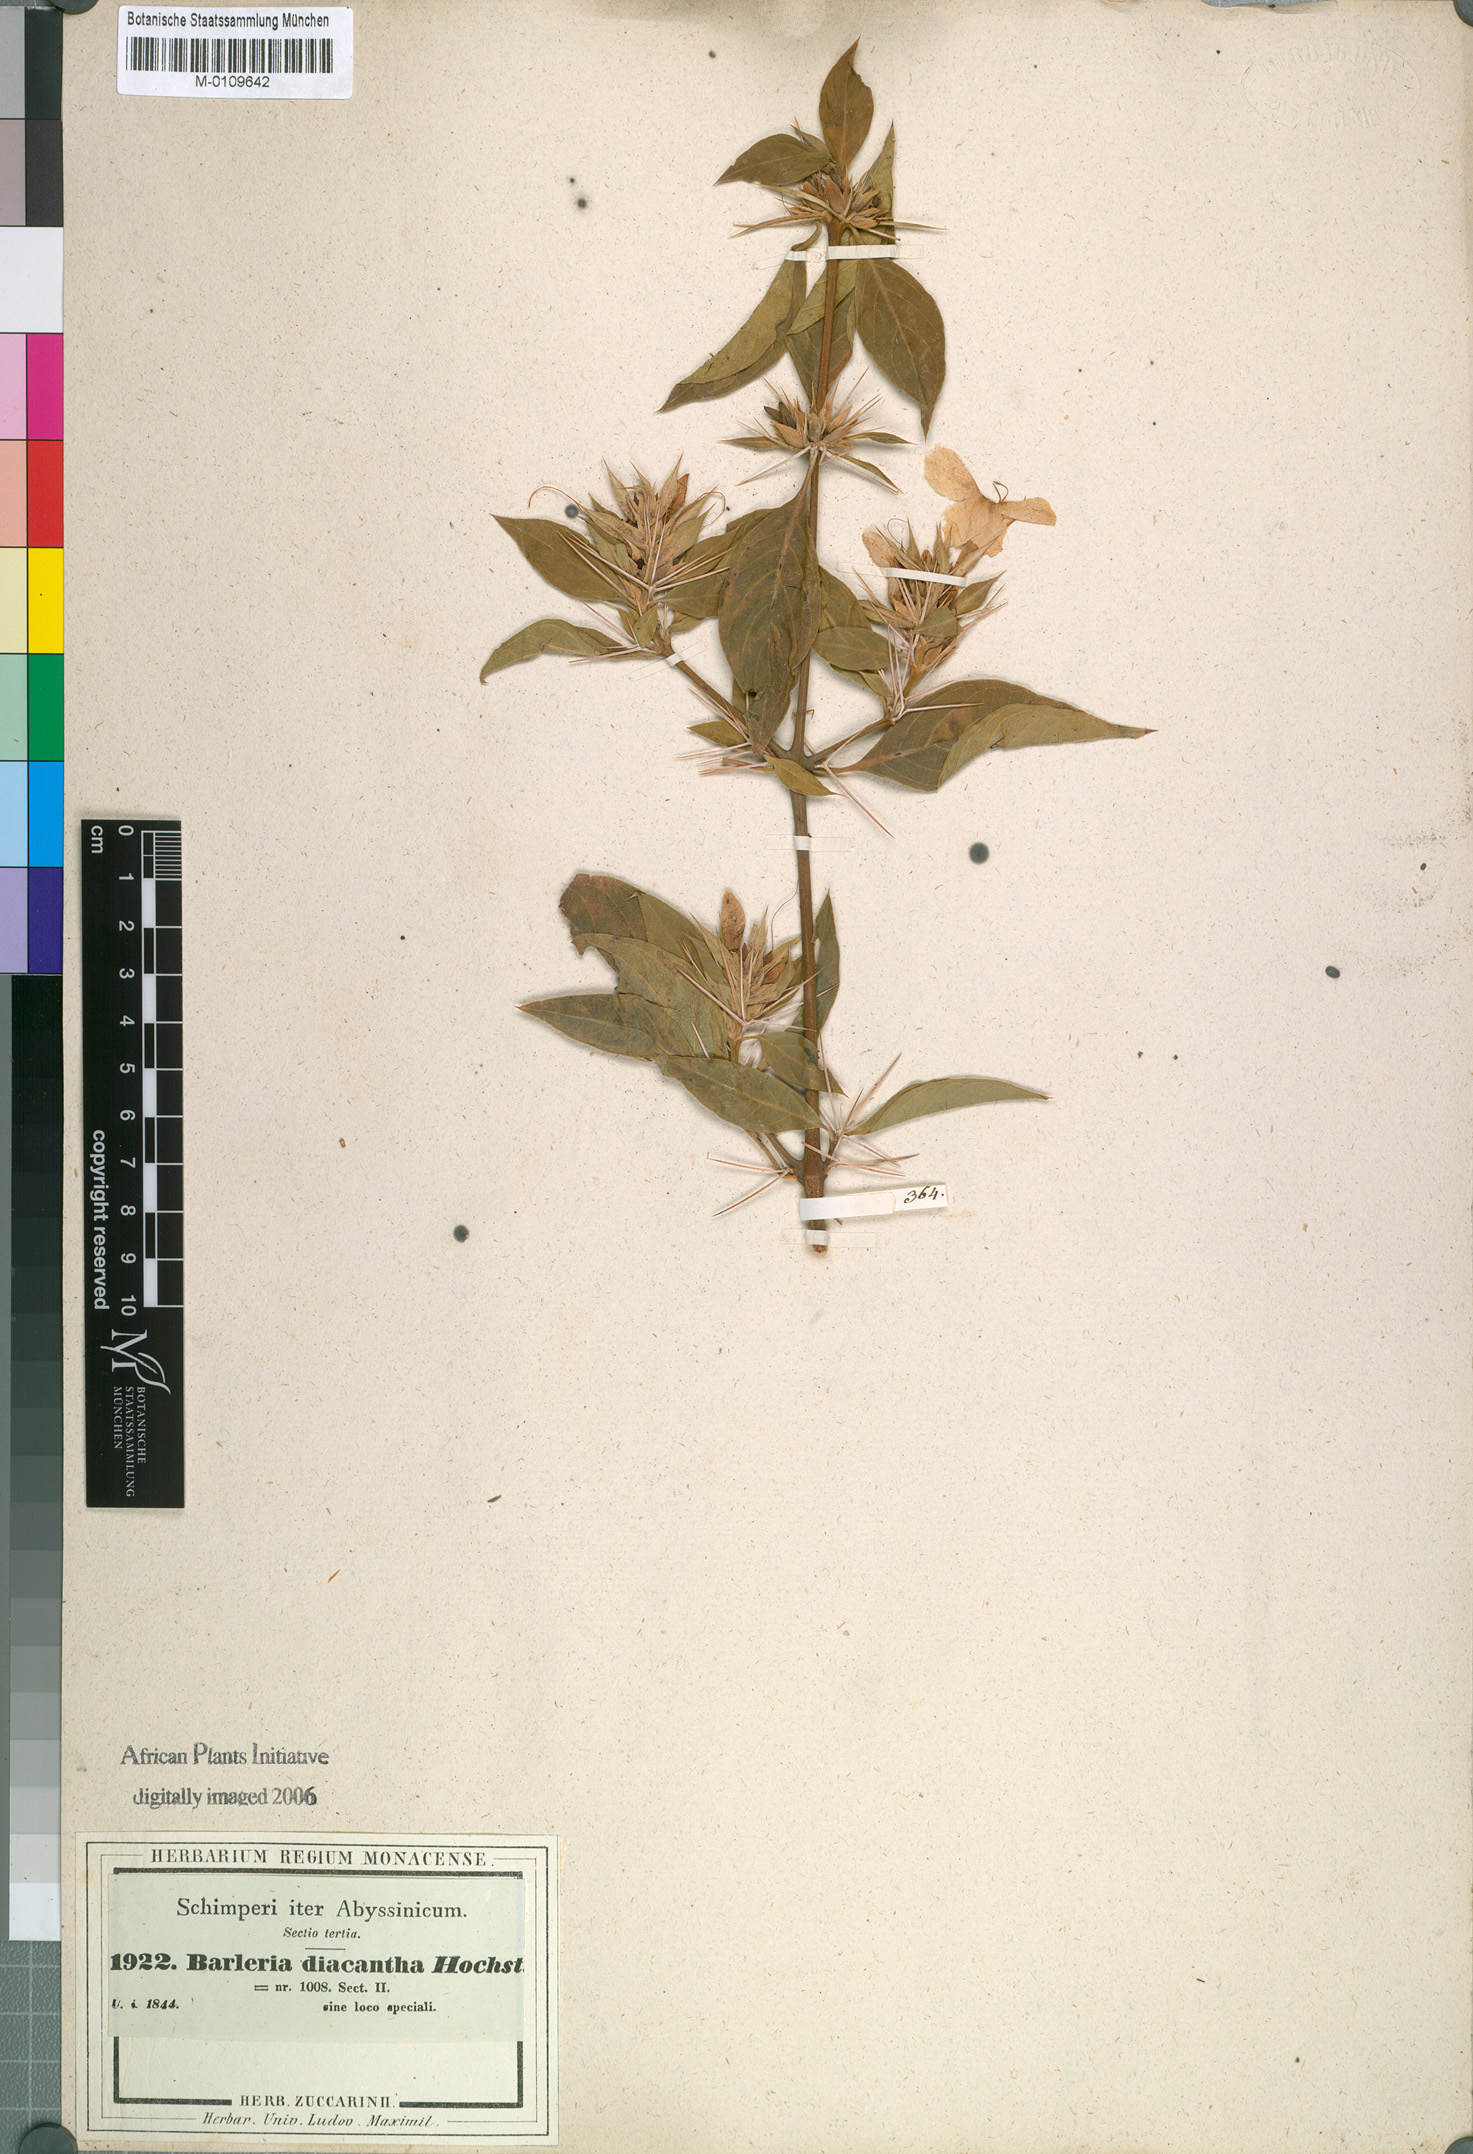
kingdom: Plantae
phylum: Tracheophyta
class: Magnoliopsida
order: Lamiales
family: Acanthaceae
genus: Barleria
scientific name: Barleria trispinosa
